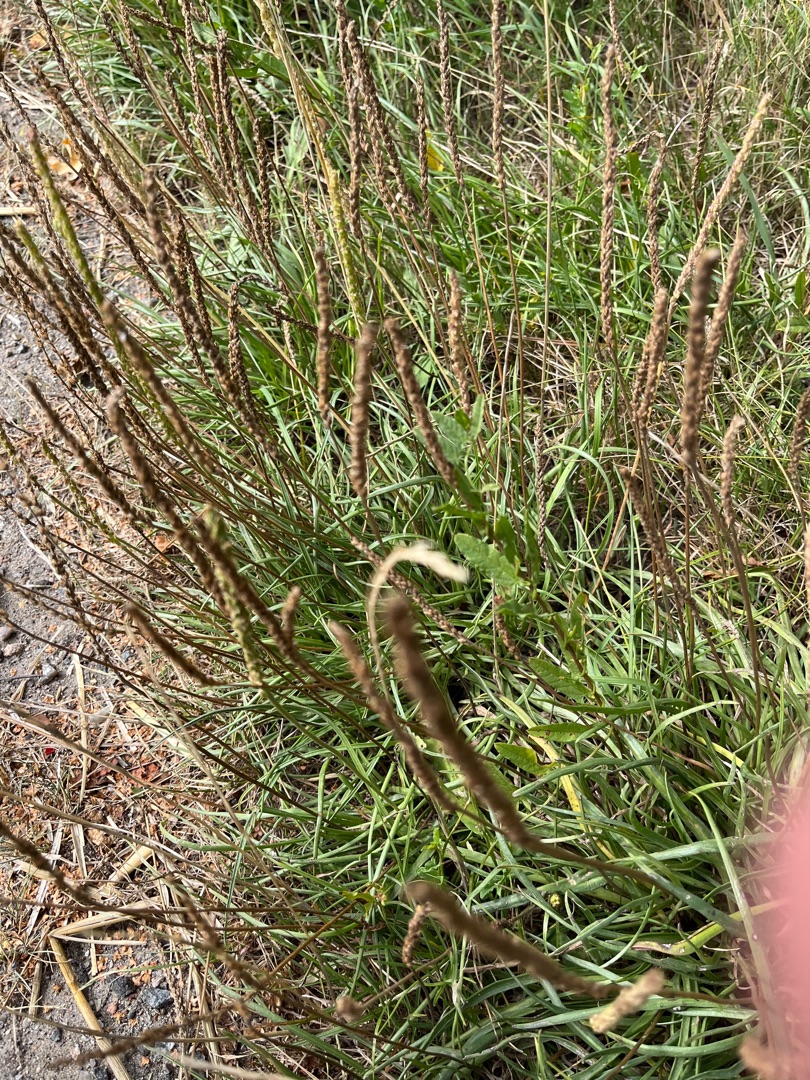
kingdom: Plantae
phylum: Tracheophyta
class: Magnoliopsida
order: Lamiales
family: Plantaginaceae
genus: Plantago
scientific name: Plantago maritima
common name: Strand-vejbred
